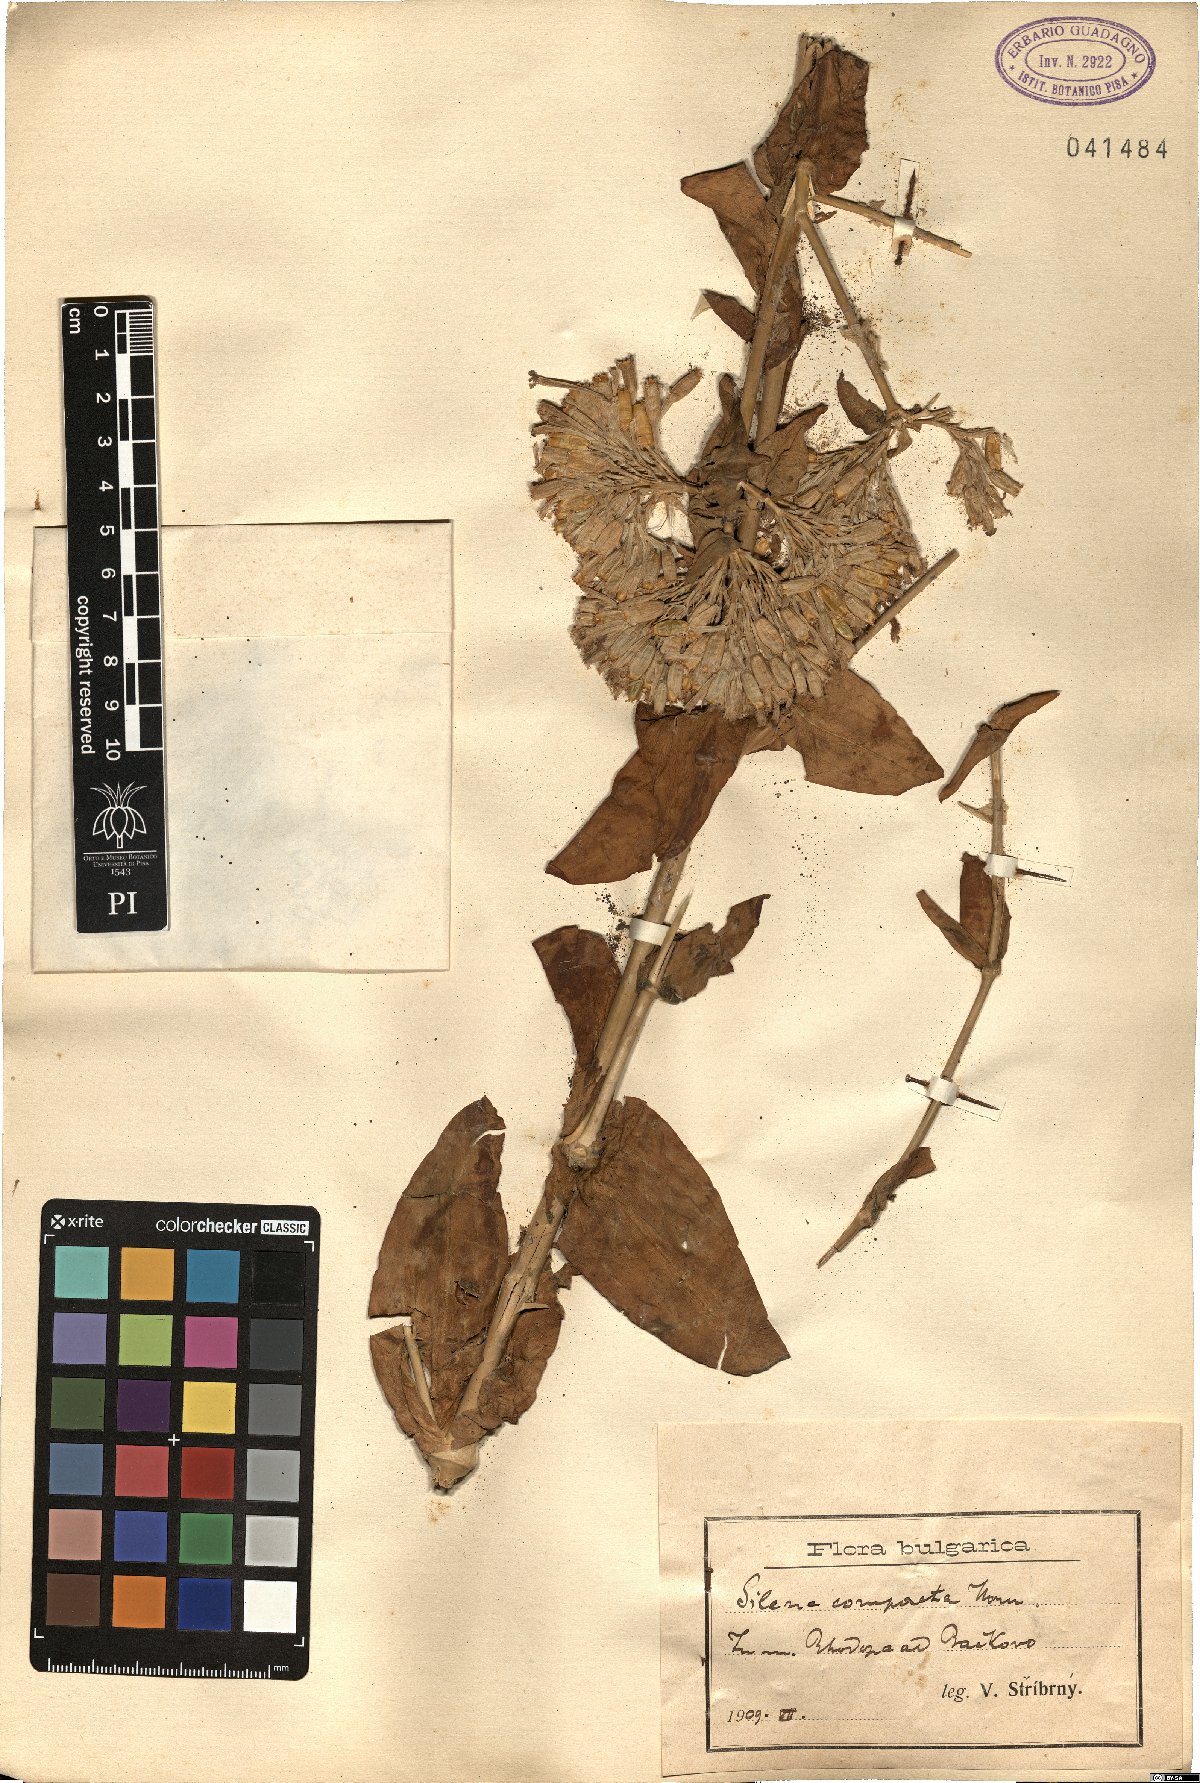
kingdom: Plantae
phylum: Tracheophyta
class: Magnoliopsida
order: Caryophyllales
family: Caryophyllaceae
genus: Atocion
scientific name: Atocion compactum
